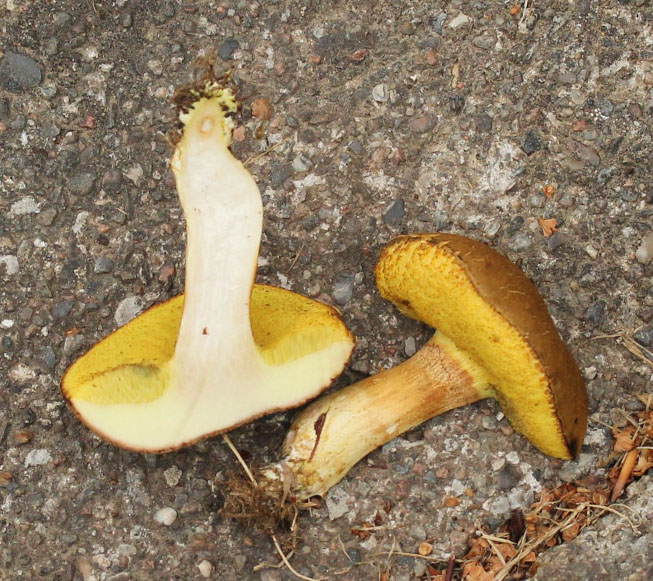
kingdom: Fungi
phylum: Basidiomycota
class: Agaricomycetes
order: Boletales
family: Boletaceae
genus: Xerocomus
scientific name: Xerocomus ferrugineus
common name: vaskeskinds-rørhat
